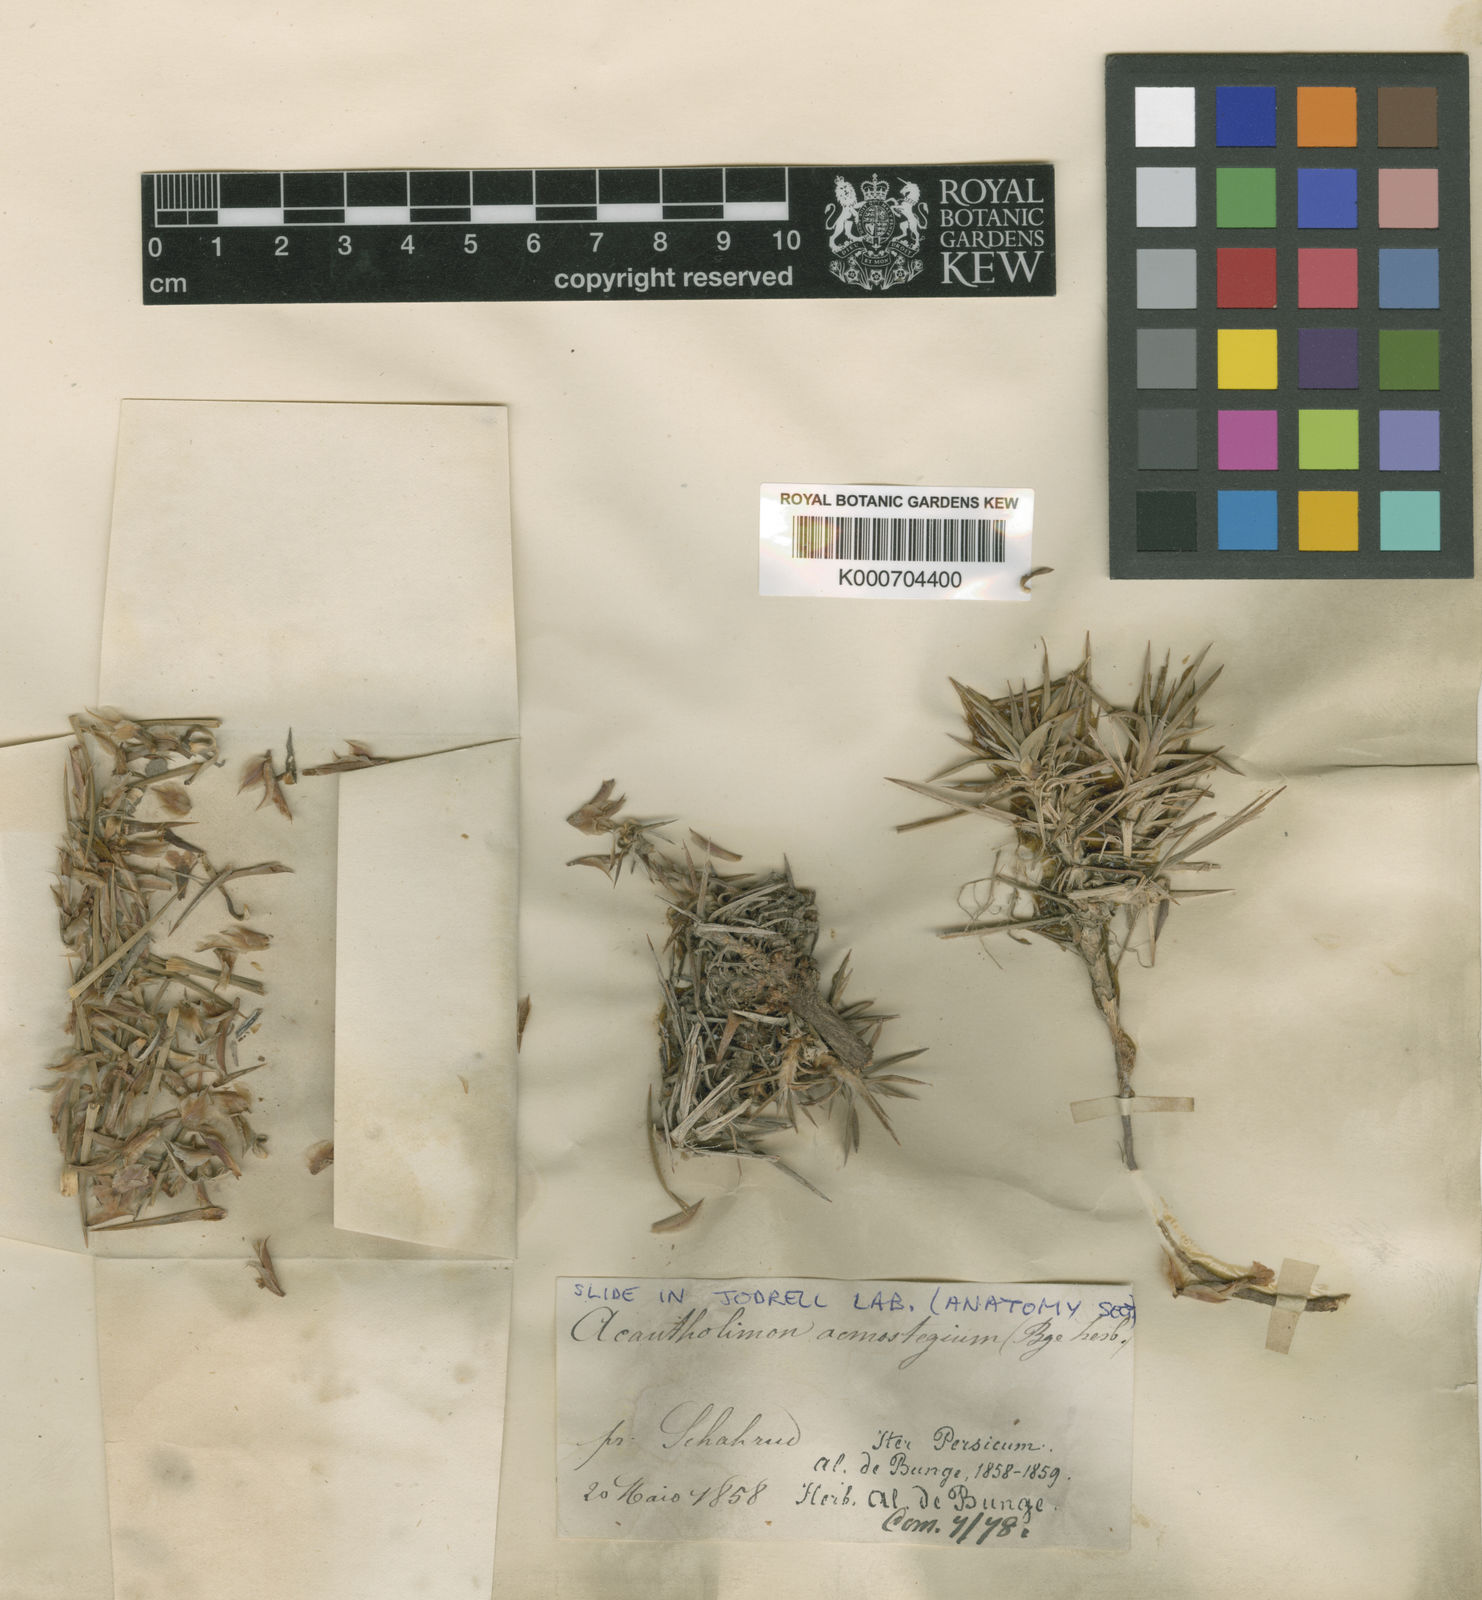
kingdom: Plantae
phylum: Tracheophyta
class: Magnoliopsida
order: Caryophyllales
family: Plumbaginaceae
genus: Acantholimon
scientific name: Acantholimon acmostegium
